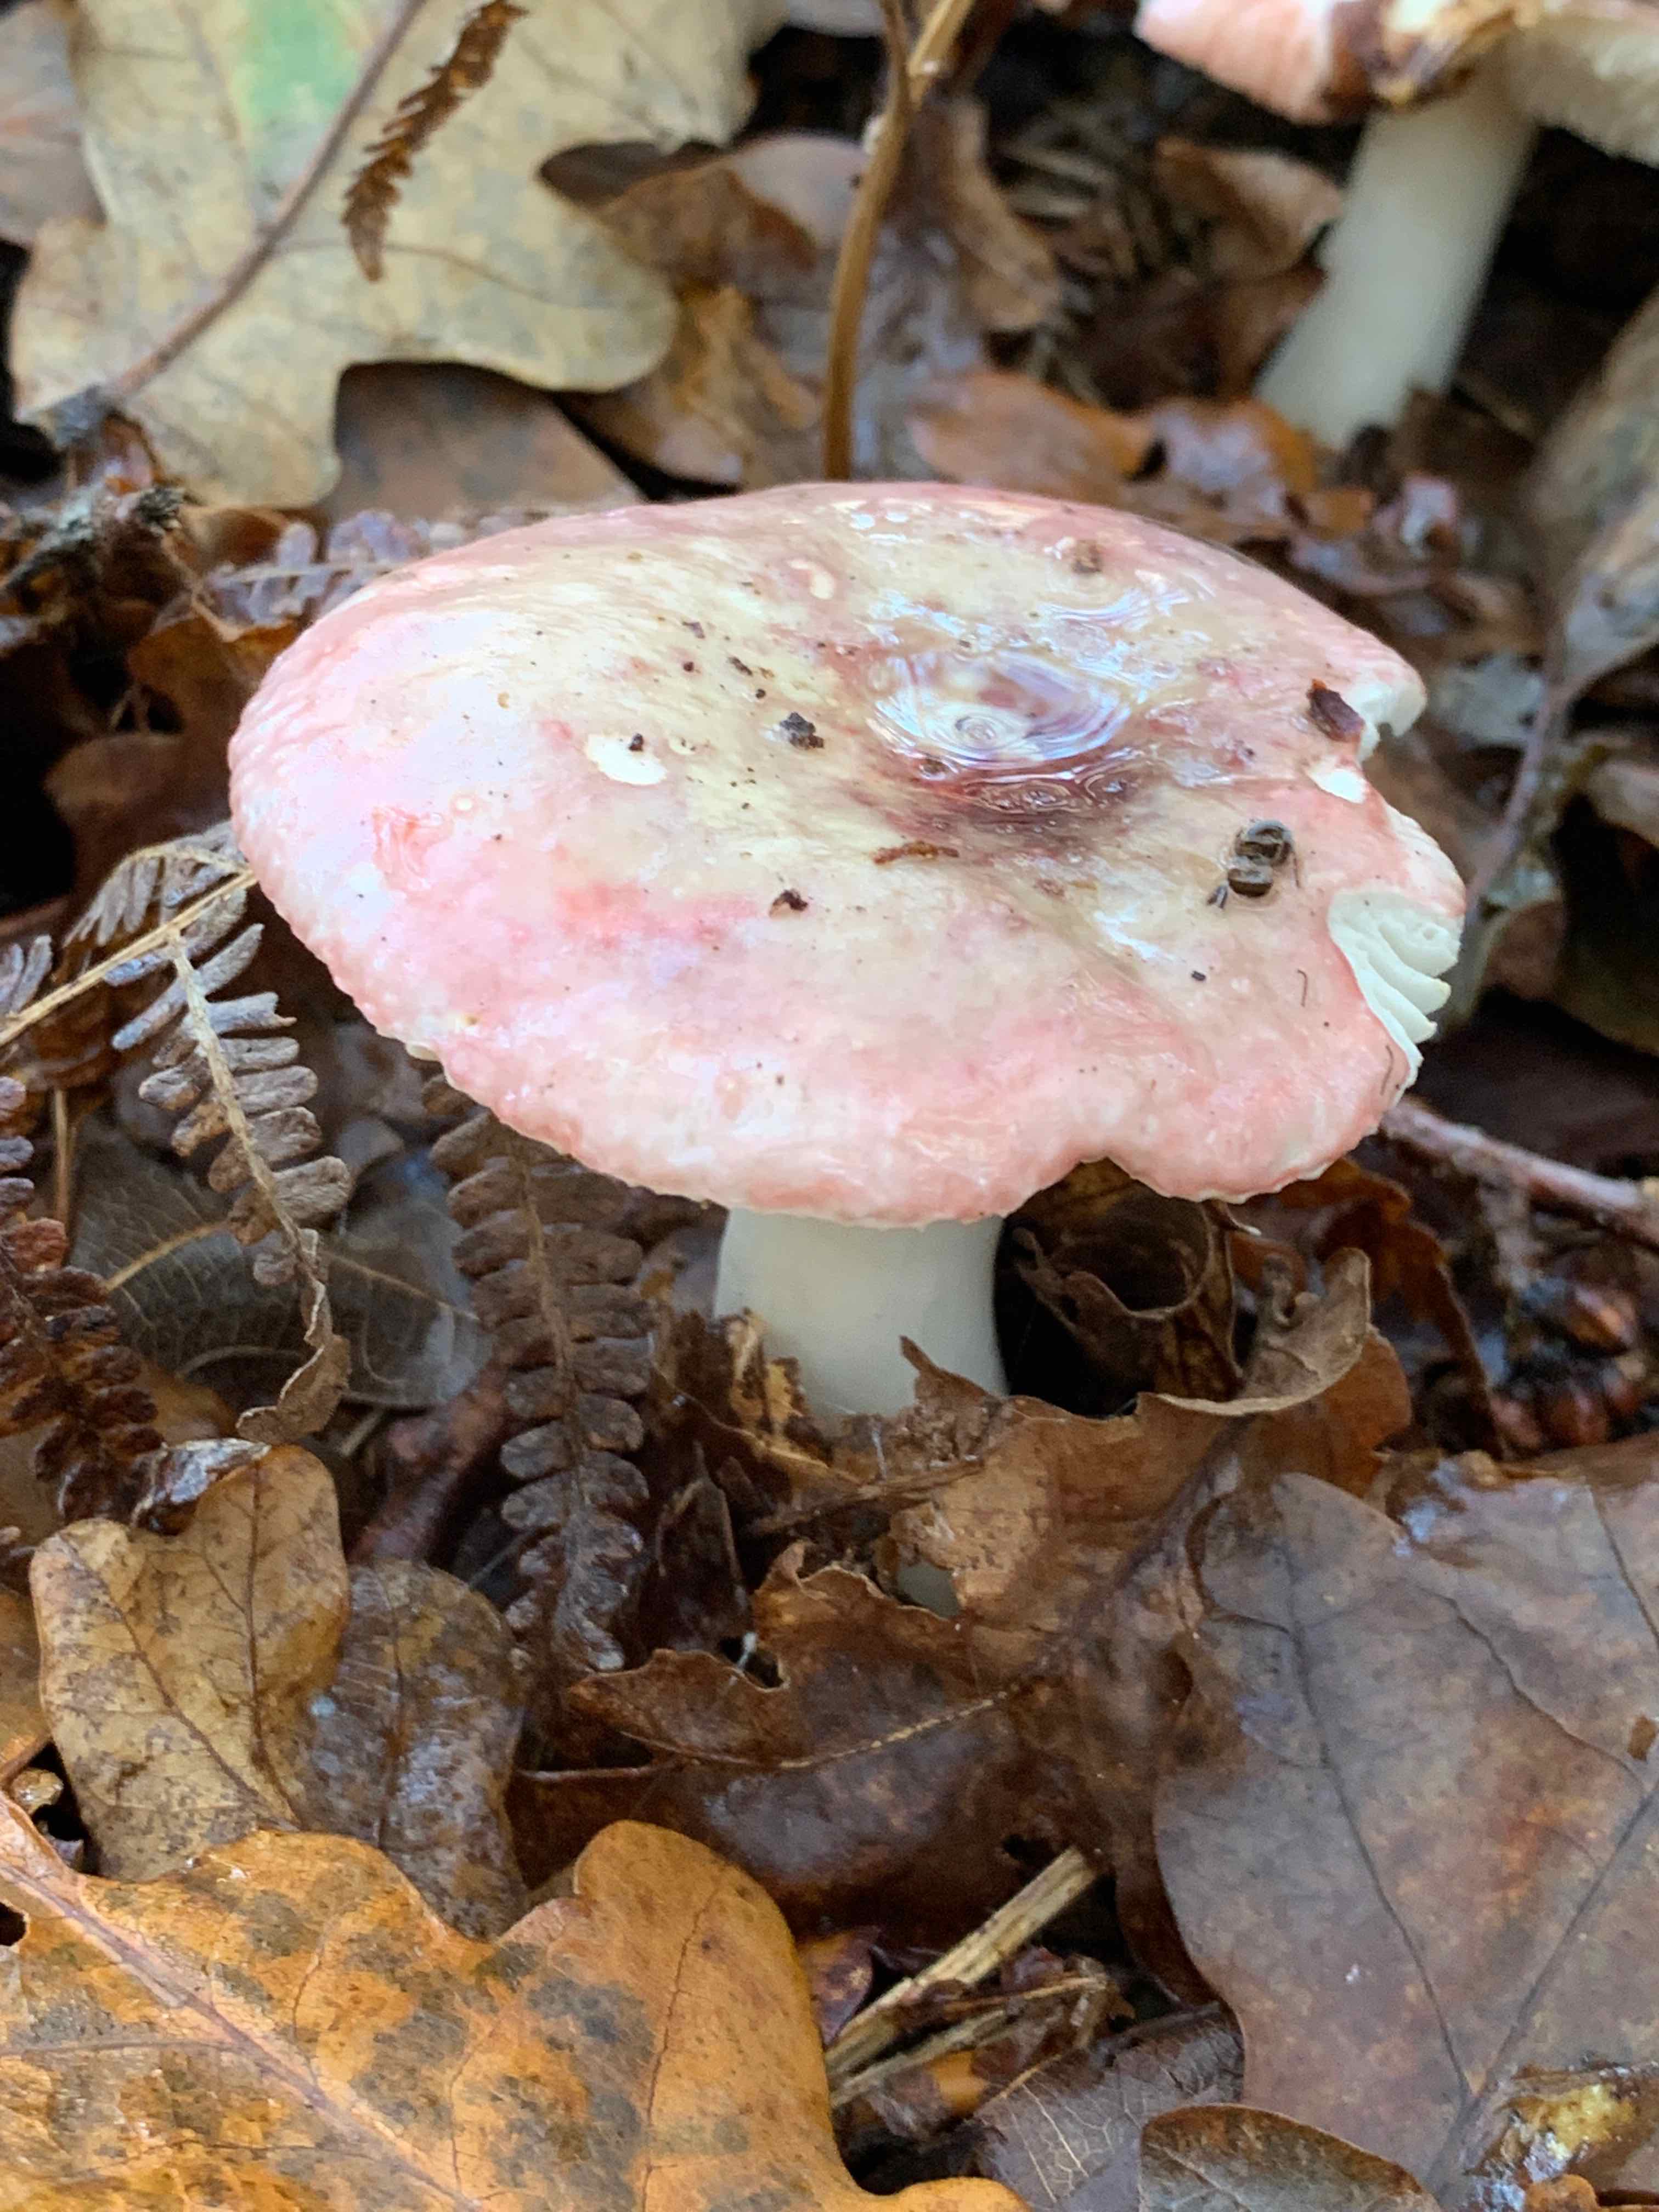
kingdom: Fungi
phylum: Basidiomycota
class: Agaricomycetes
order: Russulales
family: Russulaceae
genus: Russula
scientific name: Russula
